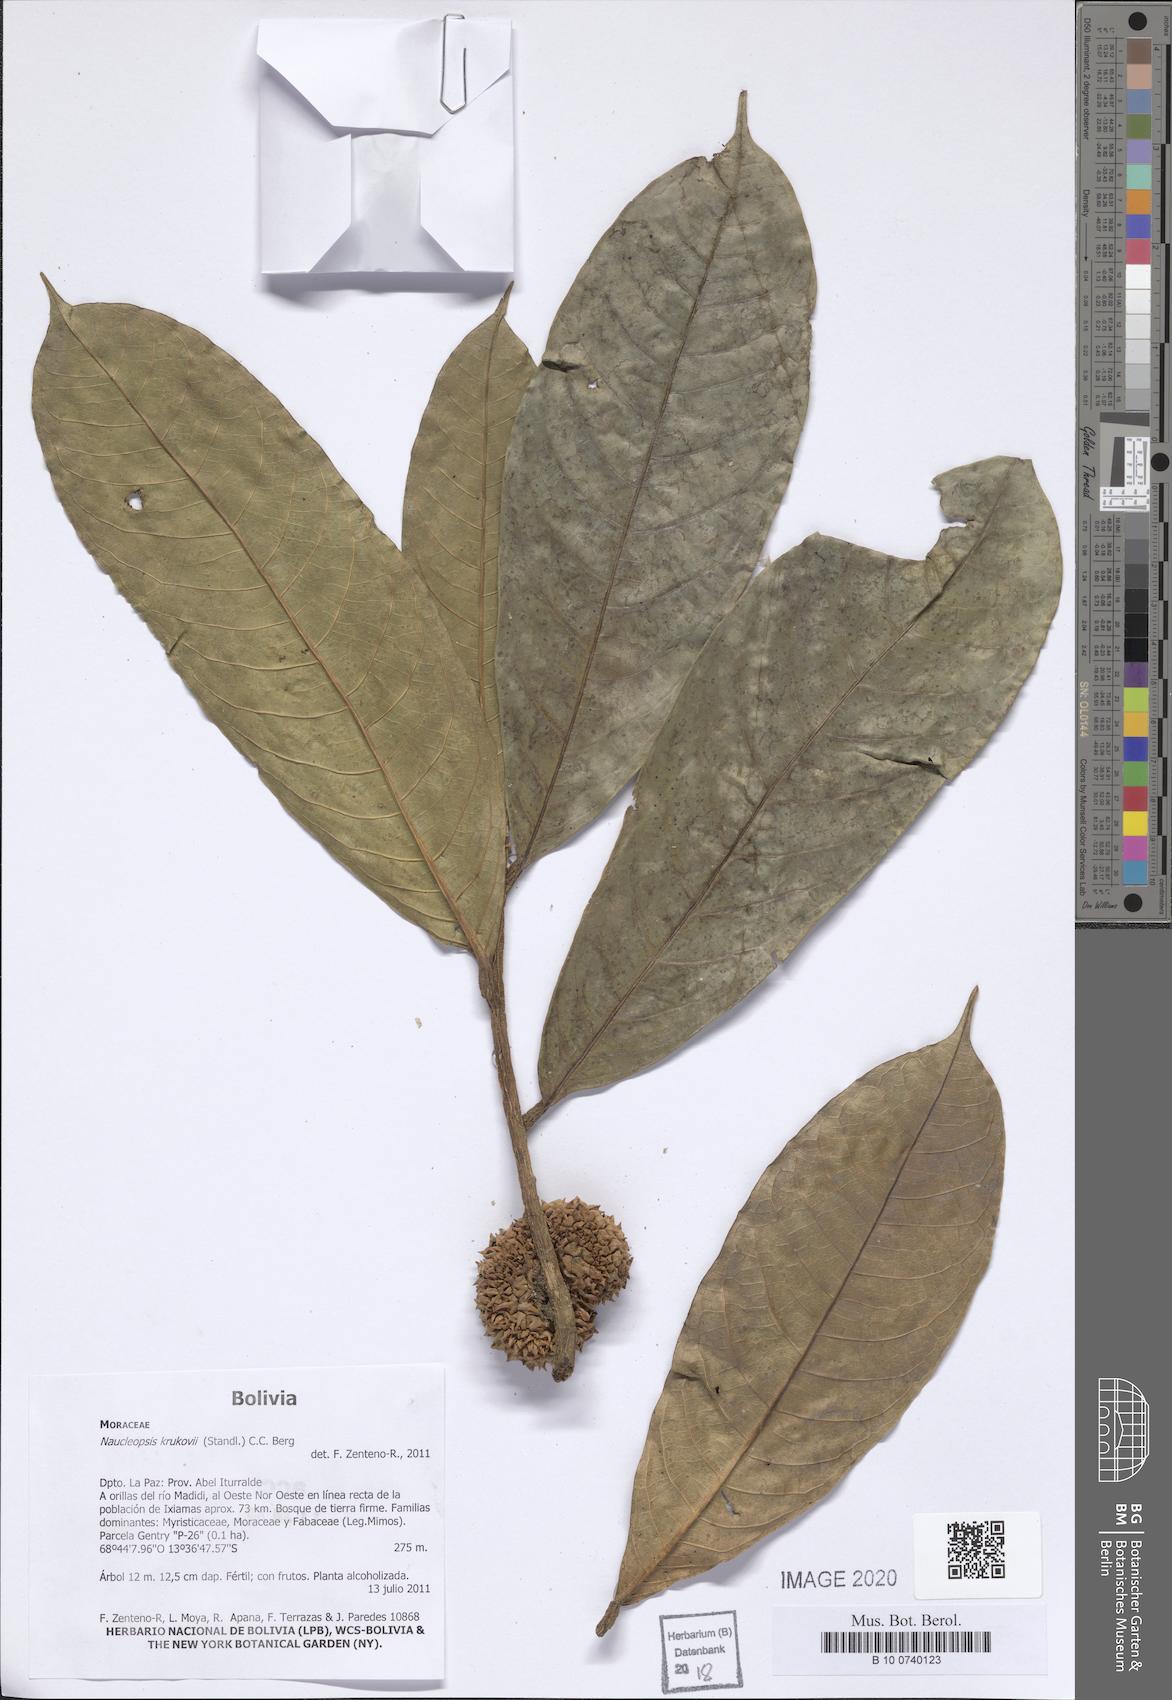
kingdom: Plantae
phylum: Tracheophyta
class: Magnoliopsida
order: Rosales
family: Moraceae
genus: Naucleopsis
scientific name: Naucleopsis krukovii
